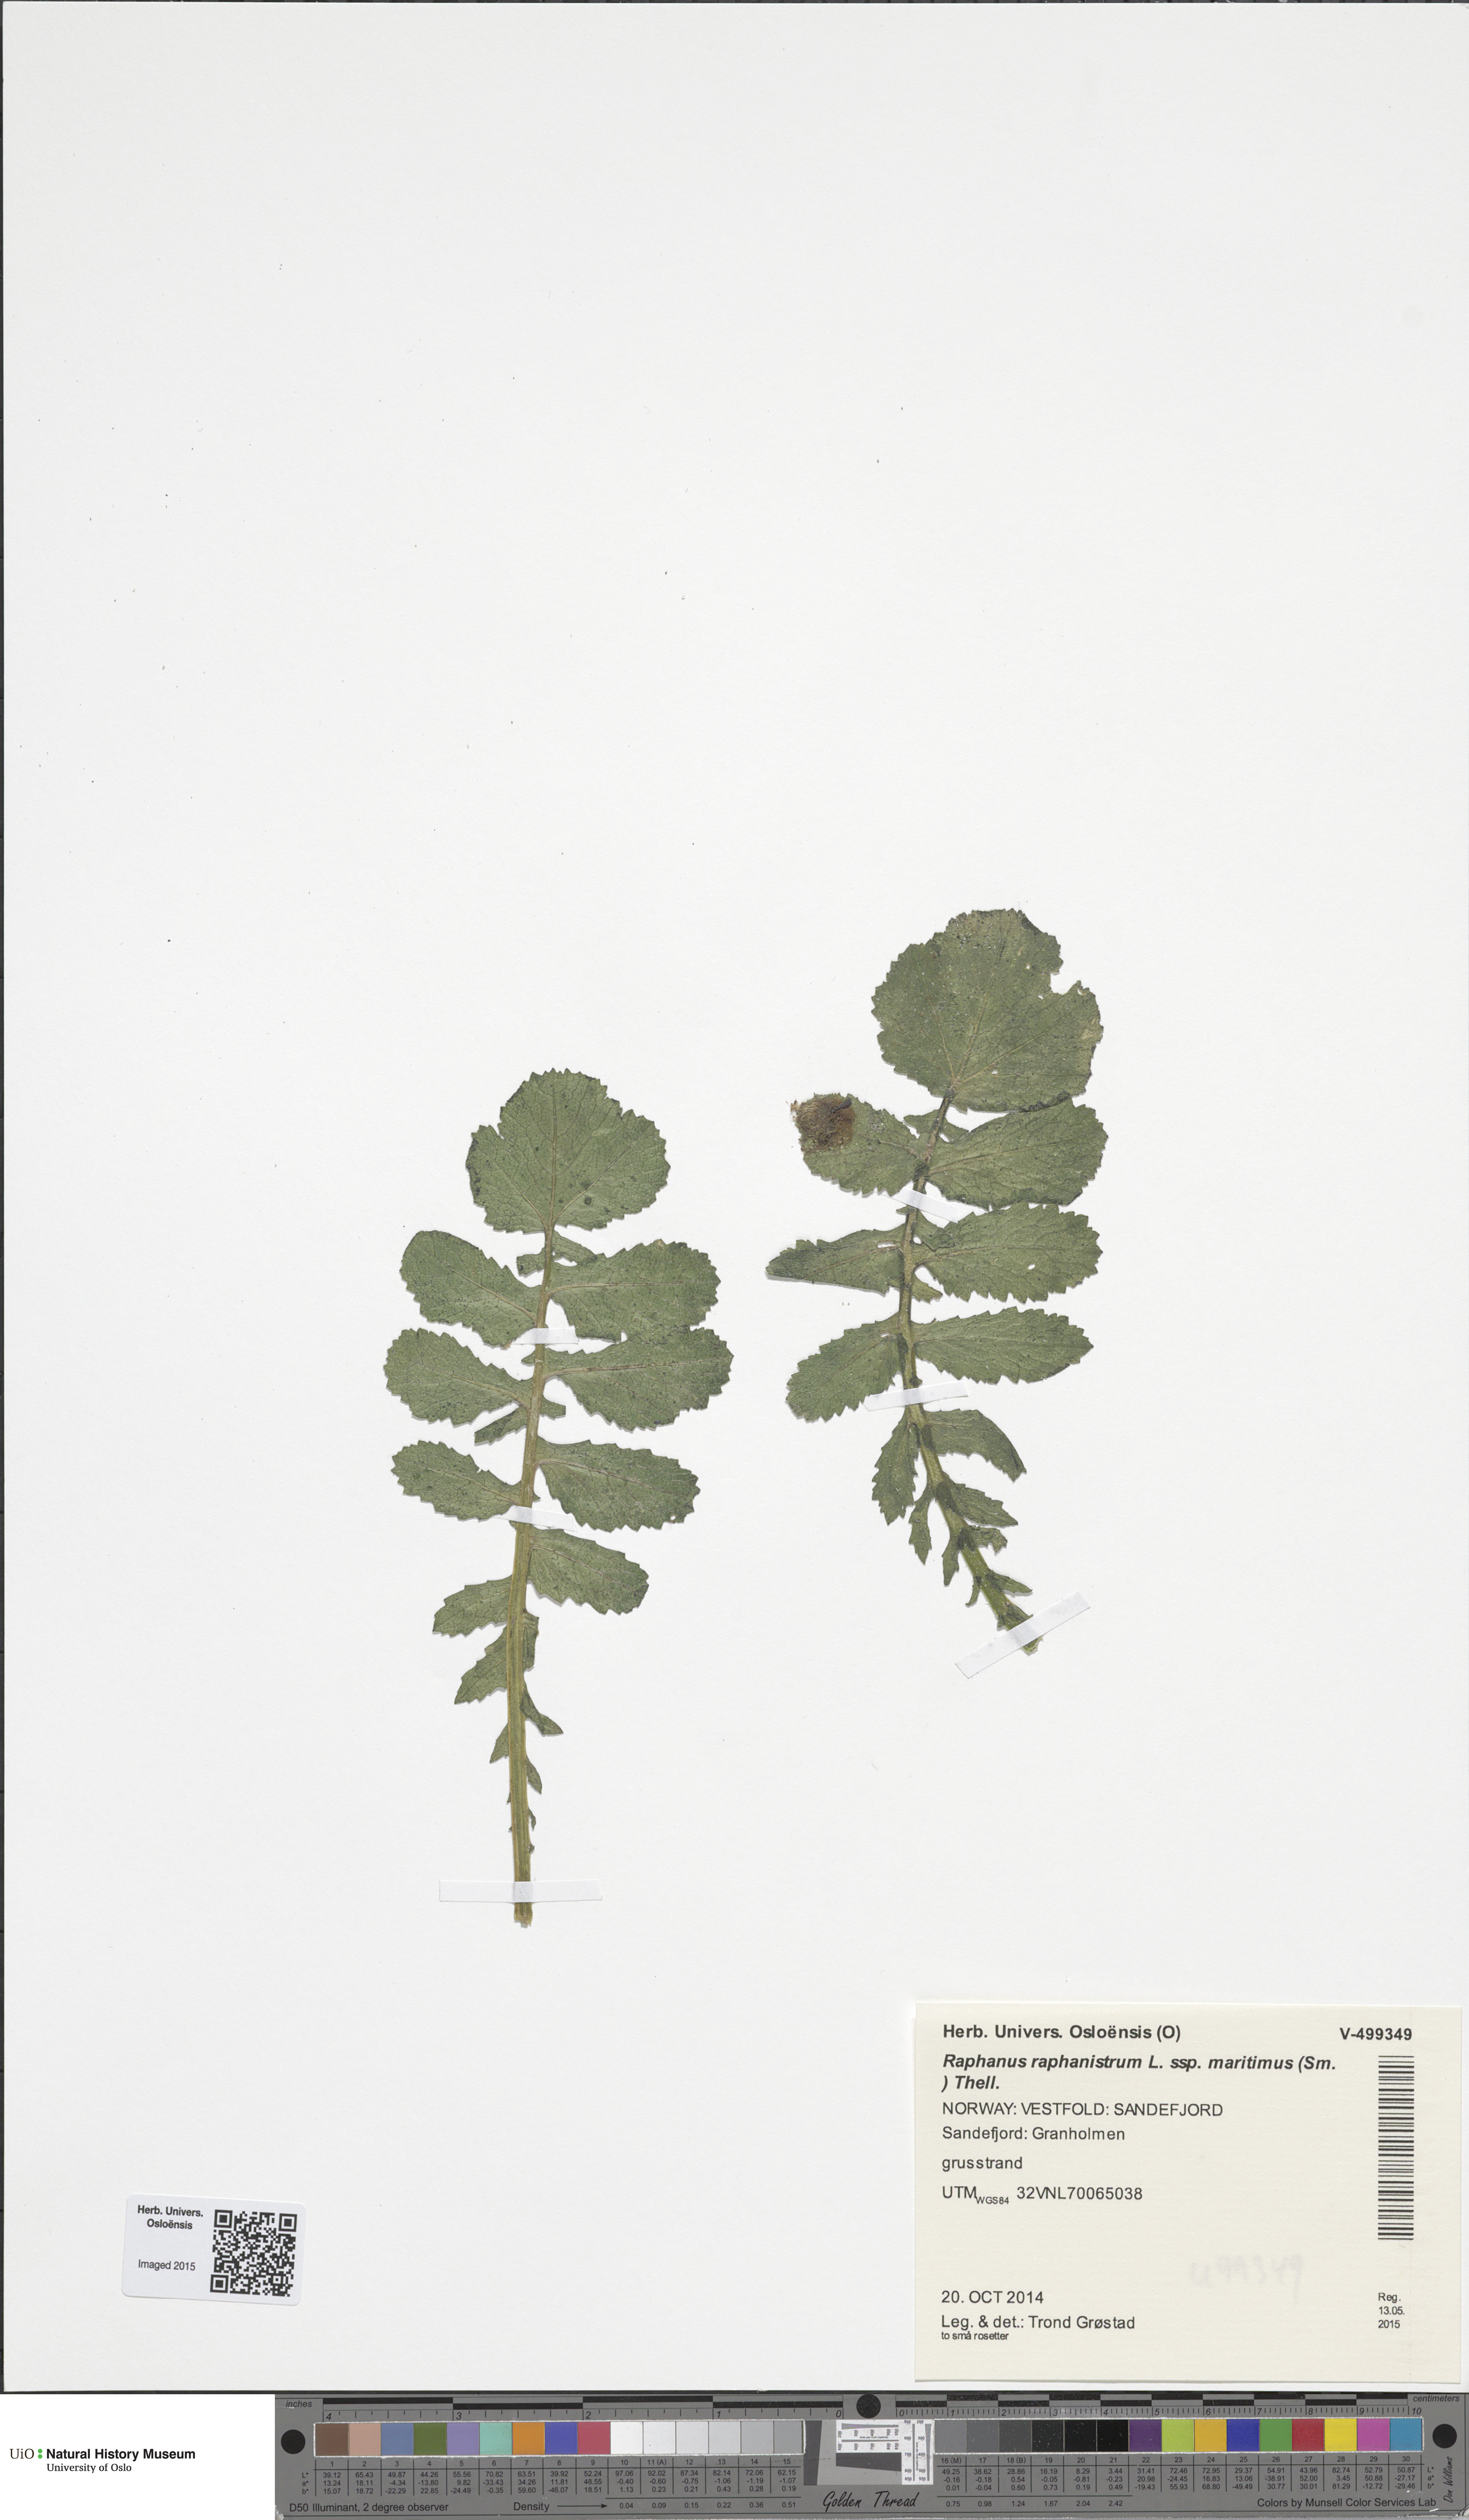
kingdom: Plantae
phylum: Tracheophyta
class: Magnoliopsida
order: Brassicales
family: Brassicaceae
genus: Raphanus
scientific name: Raphanus raphanistrum
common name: Wild radish
